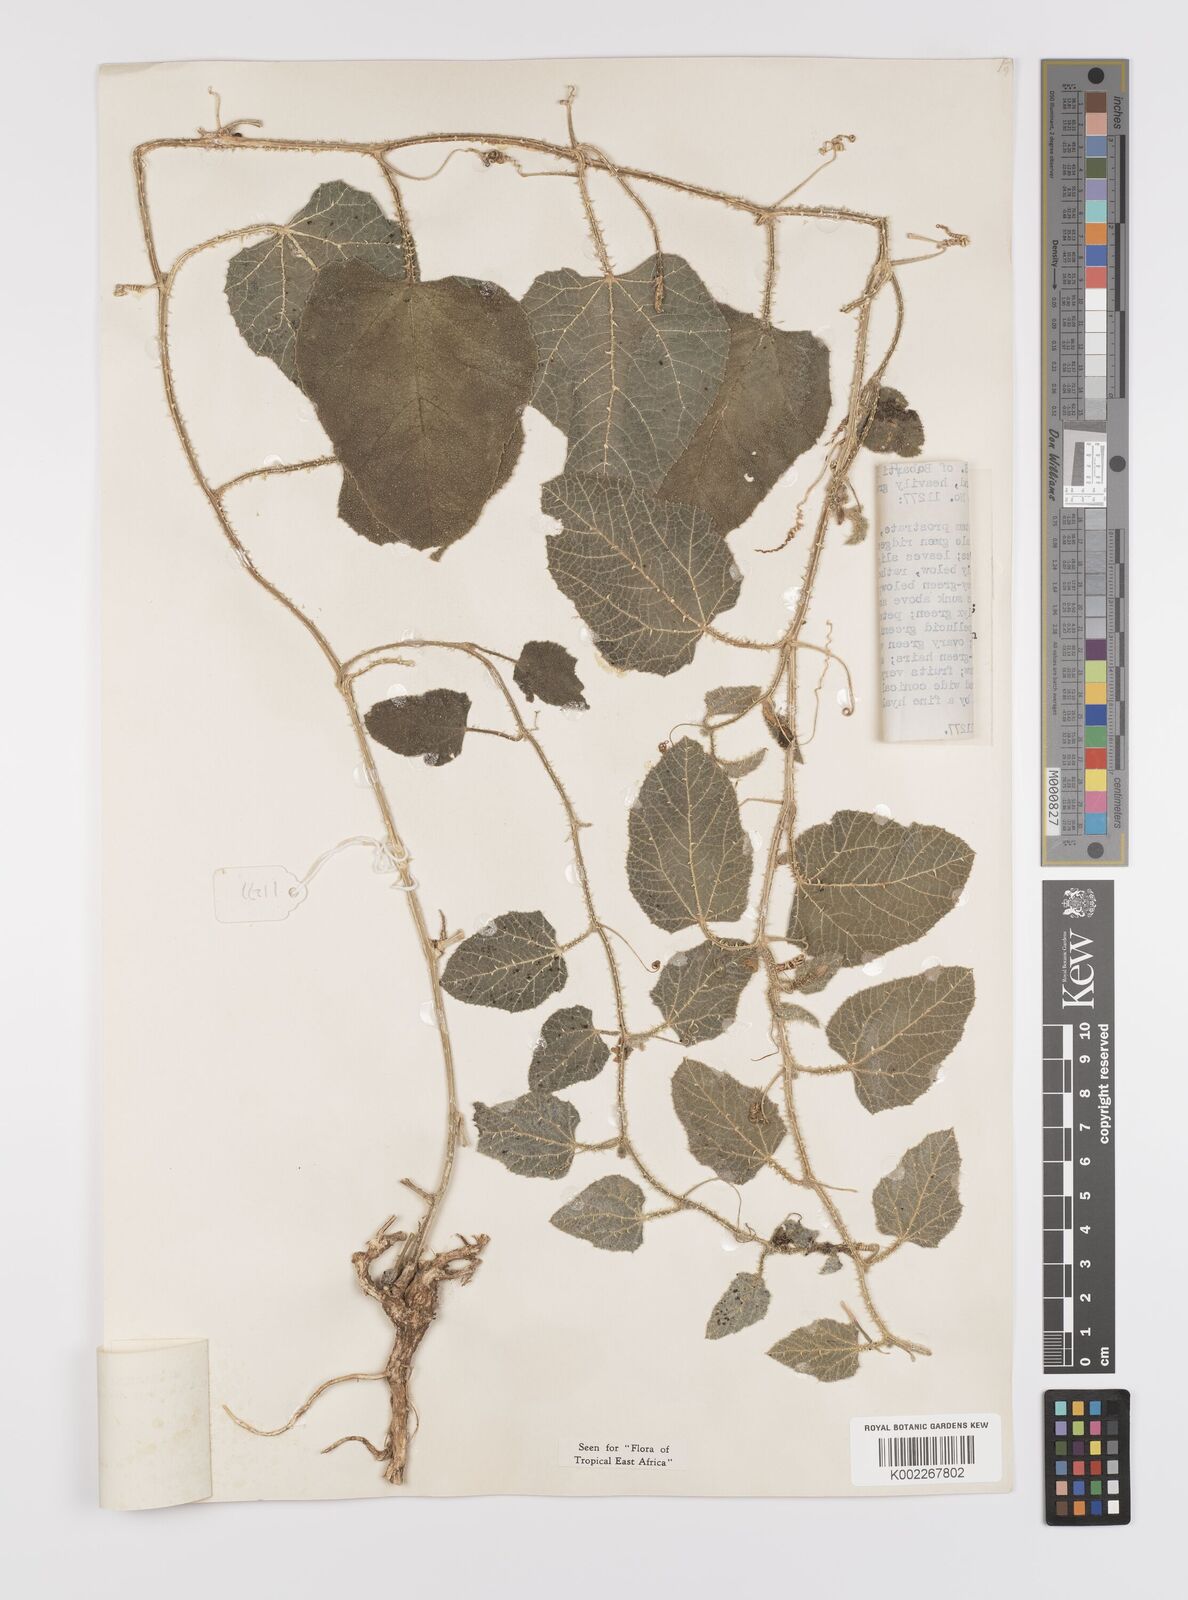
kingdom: Plantae
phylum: Tracheophyta
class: Magnoliopsida
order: Cucurbitales
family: Cucurbitaceae
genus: Cucumis
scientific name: Cucumis aculeatus
